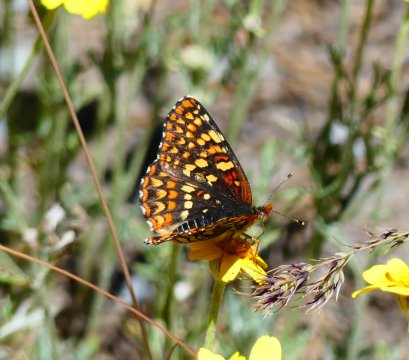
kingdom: Animalia
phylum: Arthropoda
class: Insecta
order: Lepidoptera
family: Nymphalidae
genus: Chlosyne
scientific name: Chlosyne palla
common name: Northern Checkerspot
